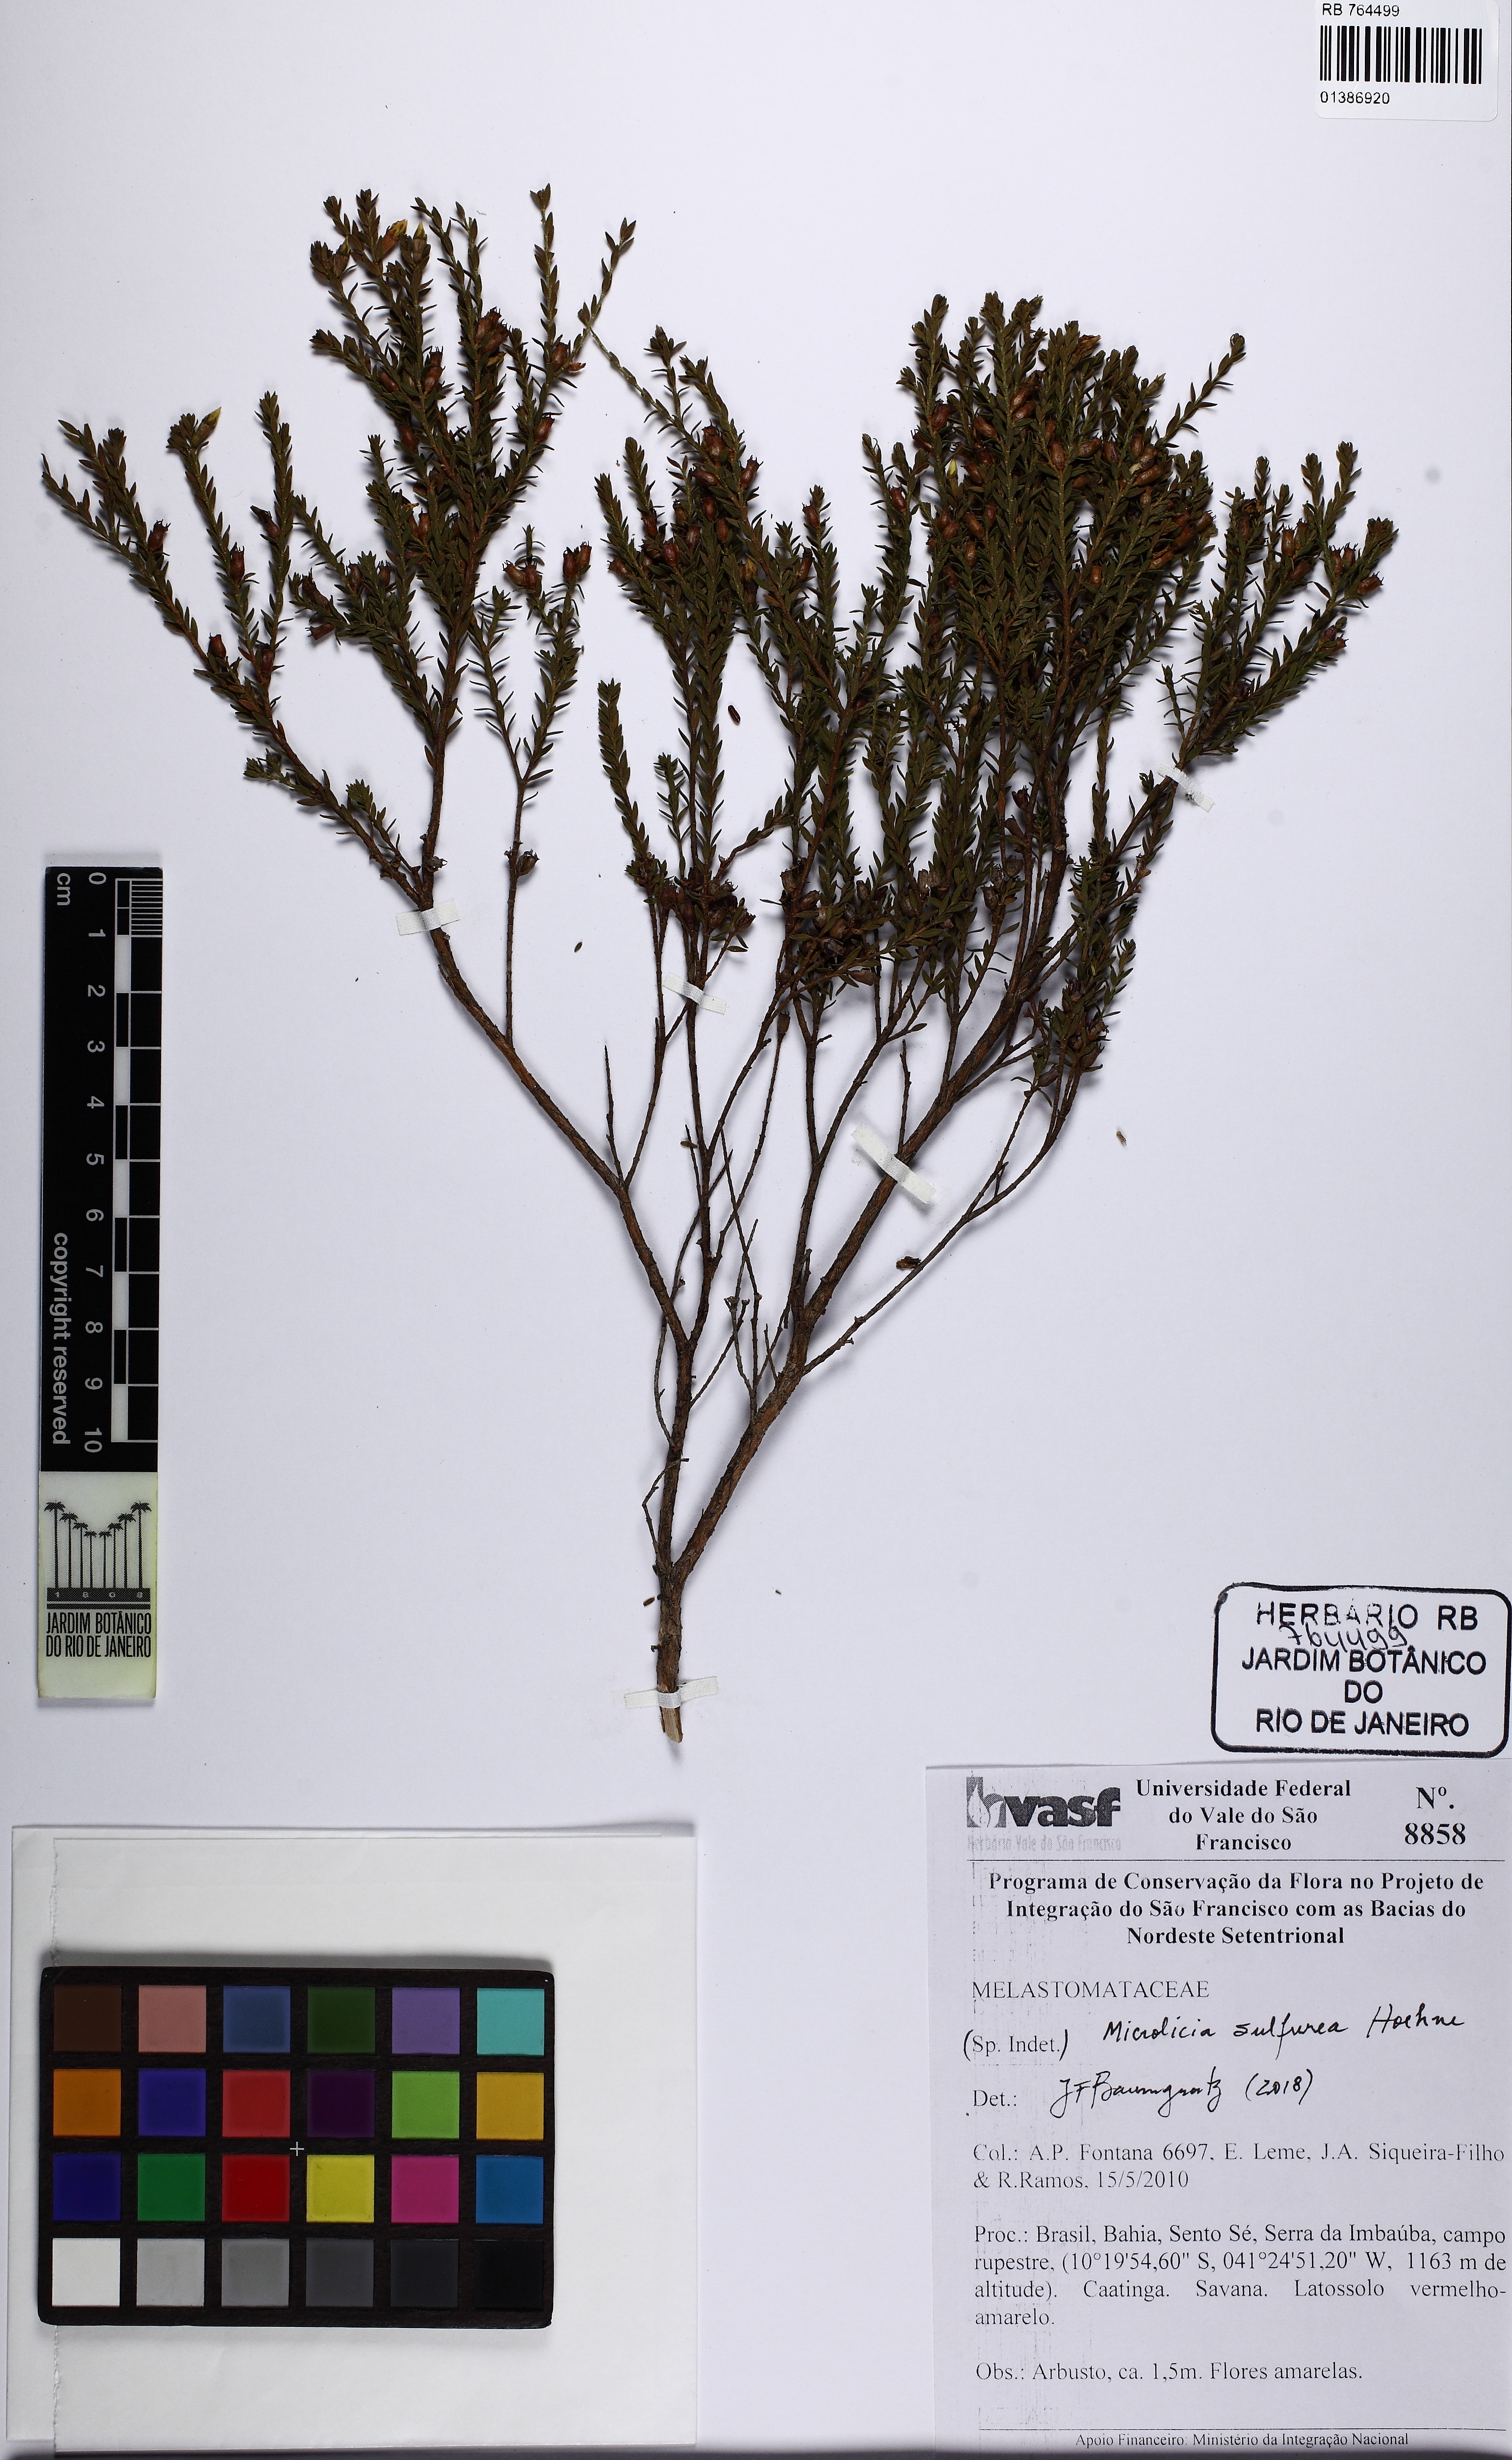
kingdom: Plantae
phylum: Tracheophyta
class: Magnoliopsida
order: Myrtales
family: Melastomataceae
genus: Microlicia
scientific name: Microlicia sulfurea
